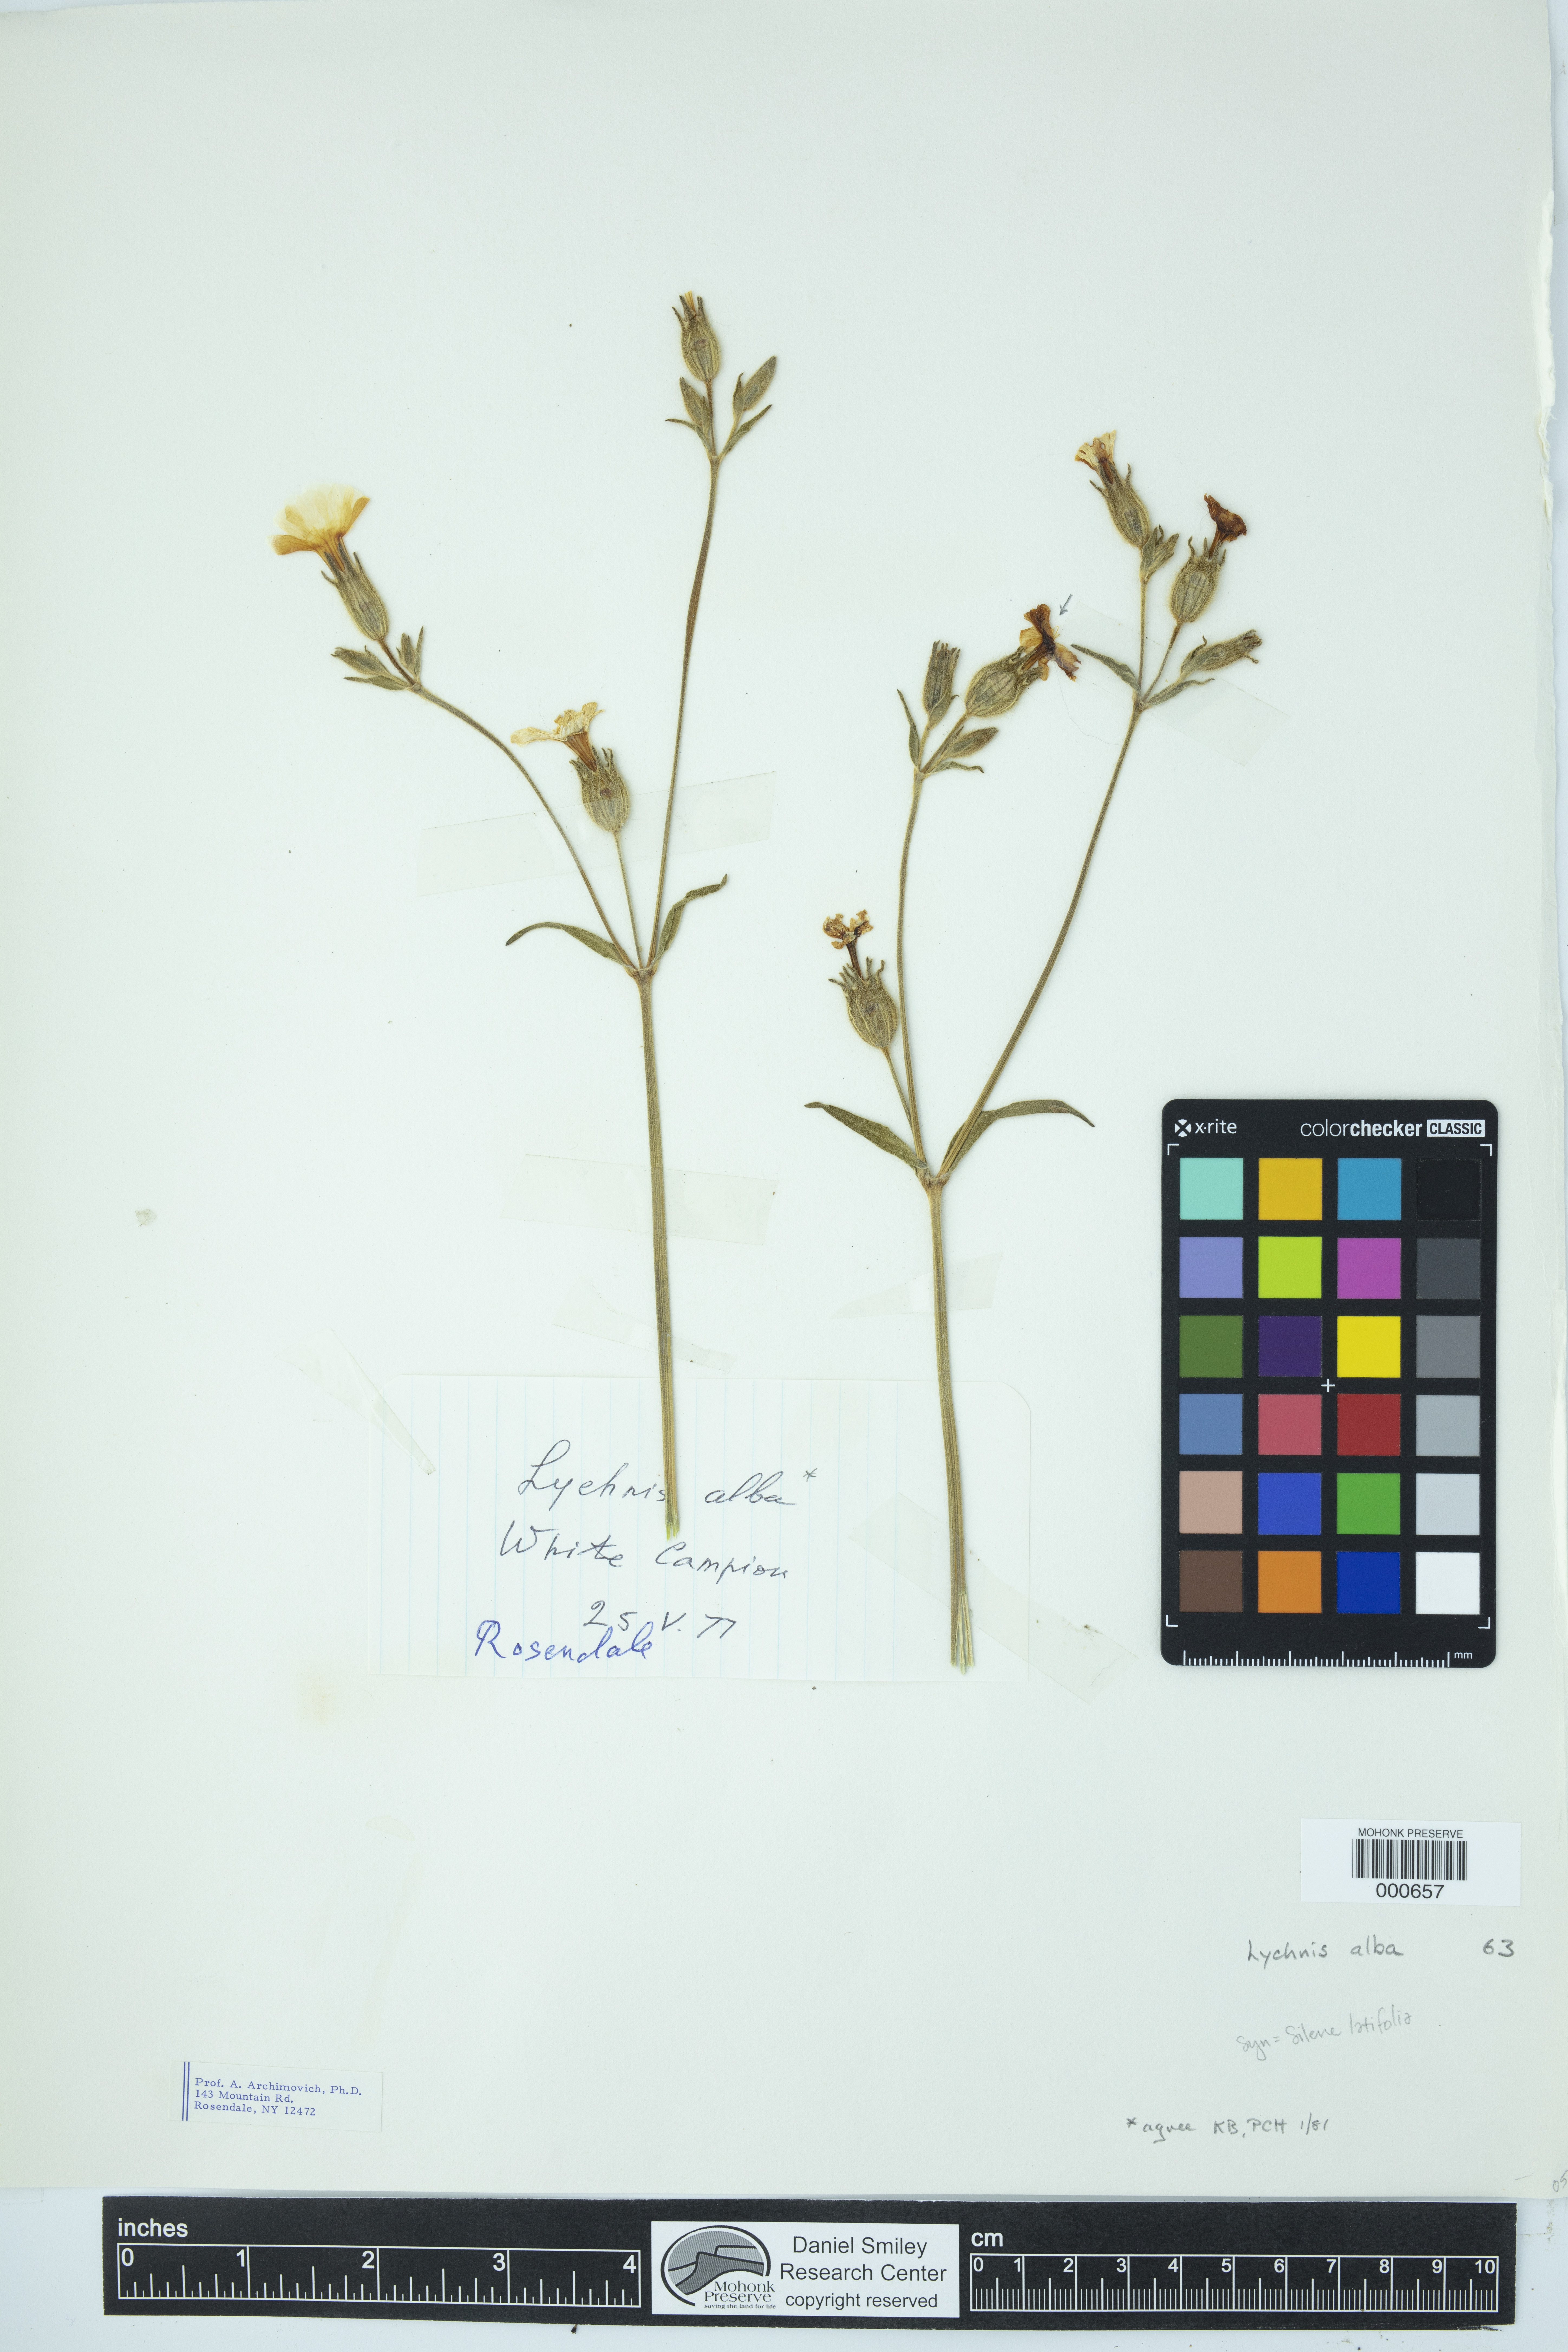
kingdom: Plantae
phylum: Tracheophyta
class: Magnoliopsida
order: Caryophyllales
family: Caryophyllaceae
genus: Silene
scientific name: Silene latifolia
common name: White campion
